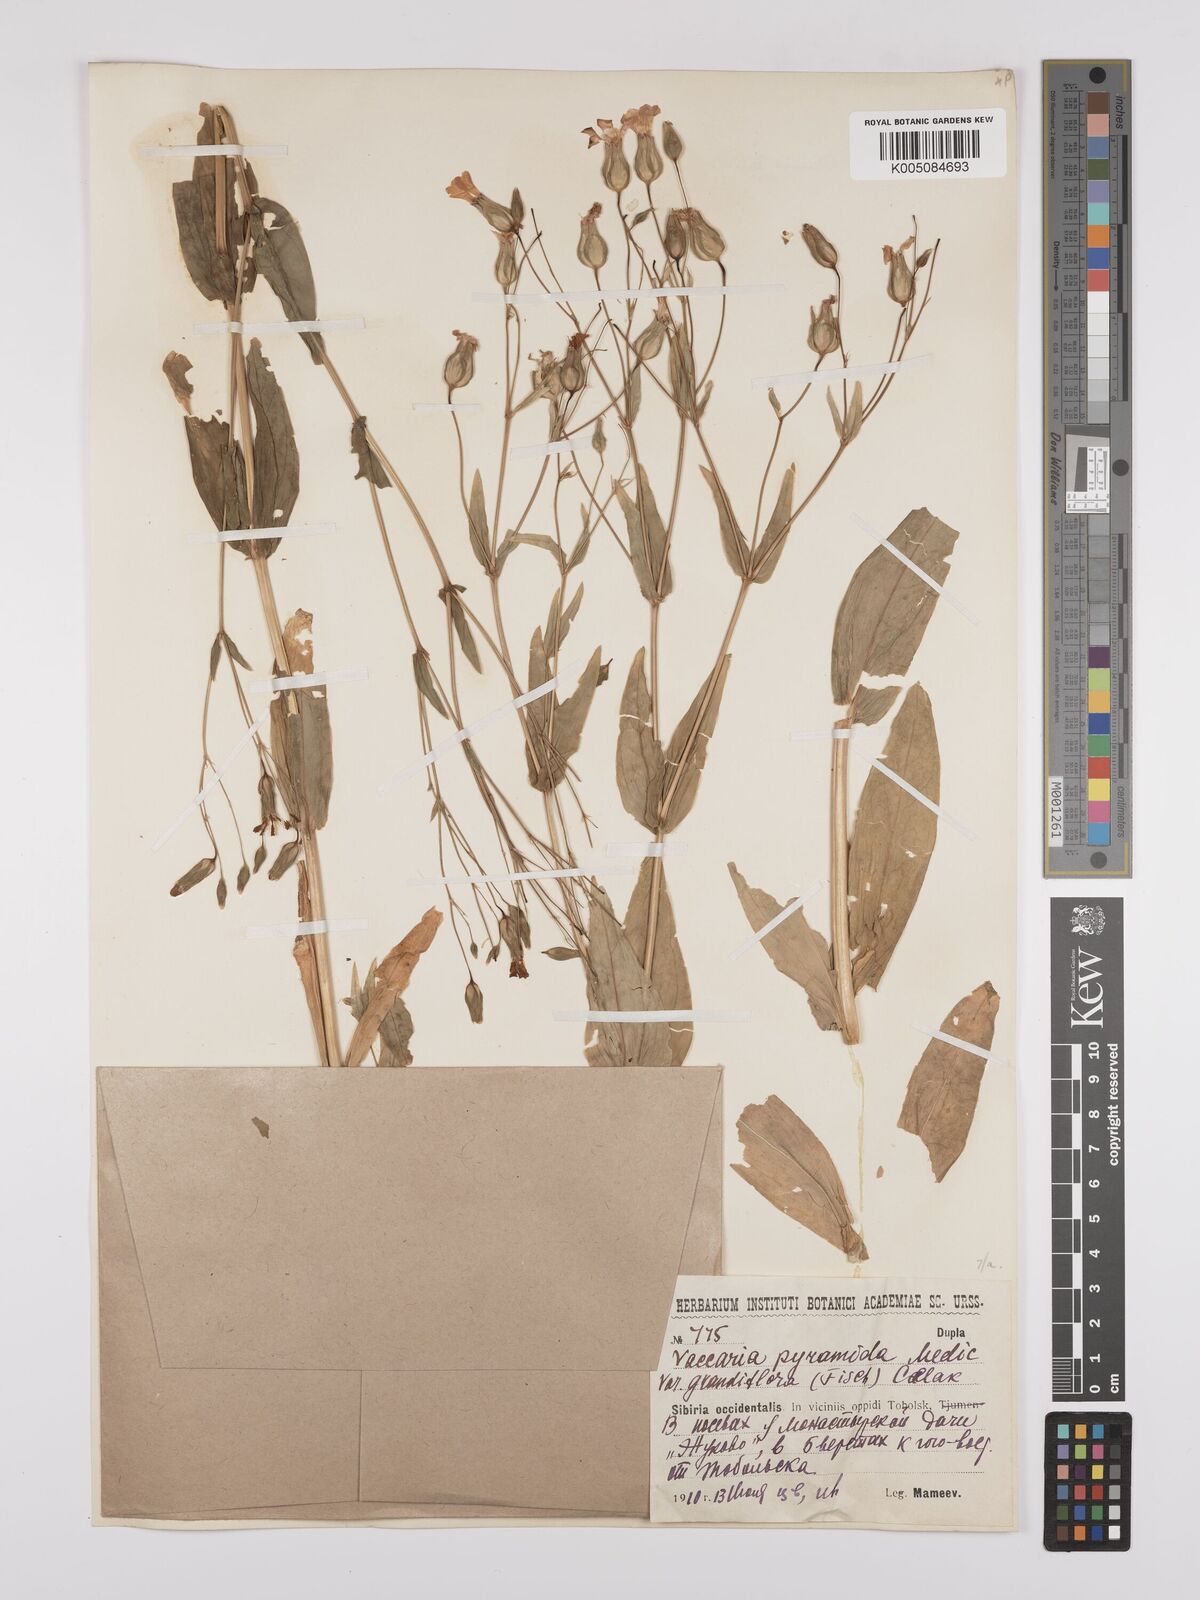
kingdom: Plantae
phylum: Tracheophyta
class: Magnoliopsida
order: Caryophyllales
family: Caryophyllaceae
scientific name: Caryophyllaceae
